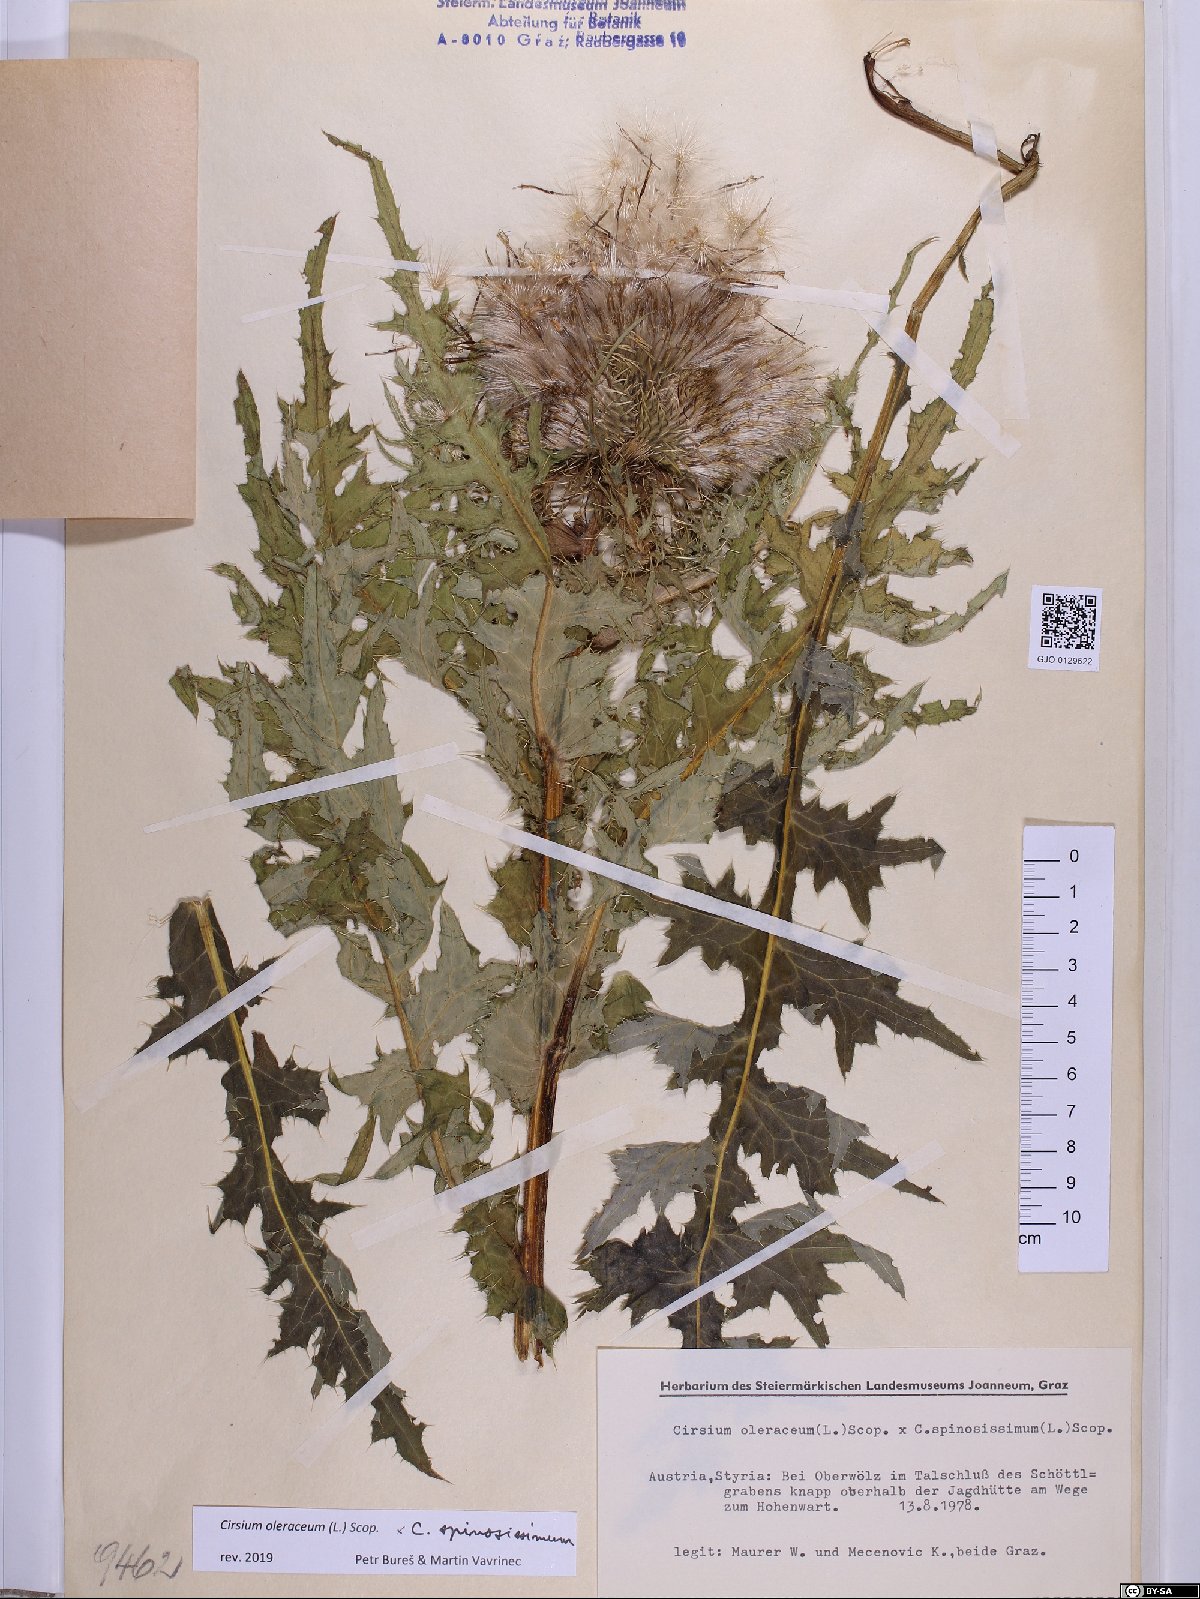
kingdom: Plantae
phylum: Tracheophyta
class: Magnoliopsida
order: Asterales
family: Asteraceae
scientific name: Asteraceae
